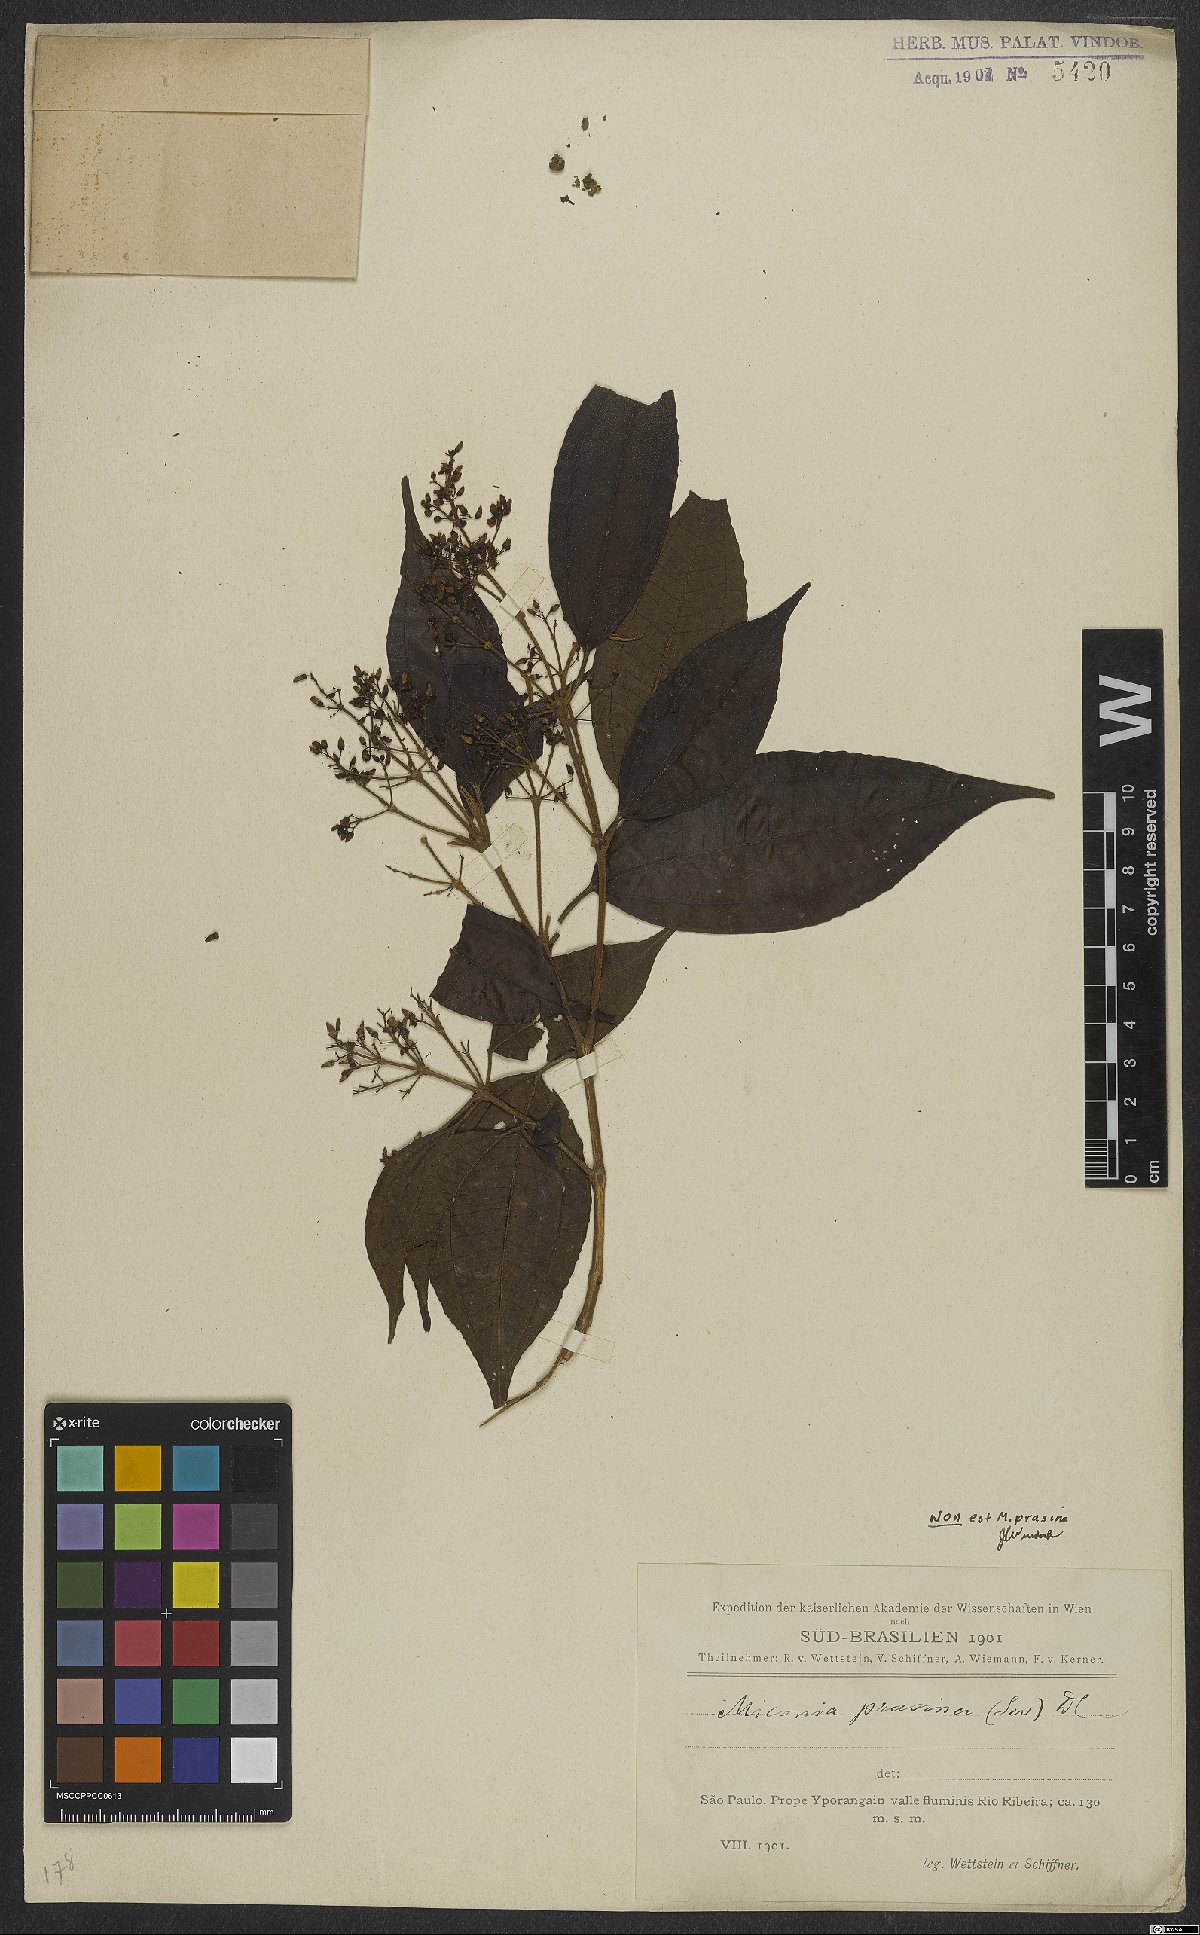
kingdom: Plantae
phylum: Tracheophyta
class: Magnoliopsida
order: Myrtales
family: Melastomataceae
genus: Miconia
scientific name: Miconia
